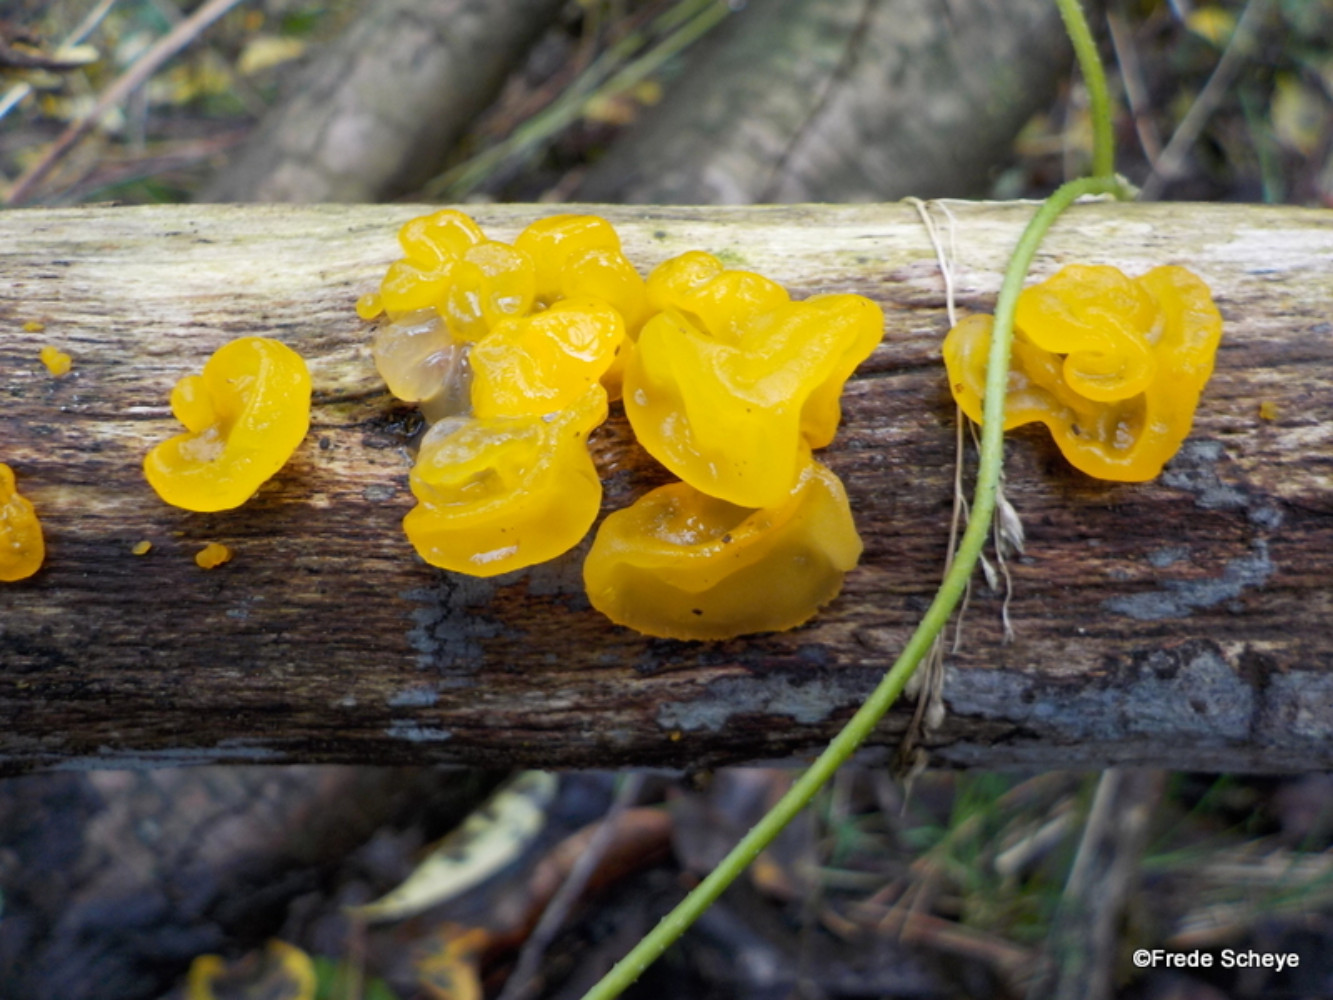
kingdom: Fungi
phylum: Basidiomycota
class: Tremellomycetes
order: Tremellales
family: Tremellaceae
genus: Tremella
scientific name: Tremella mesenterica
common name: gul bævresvamp
